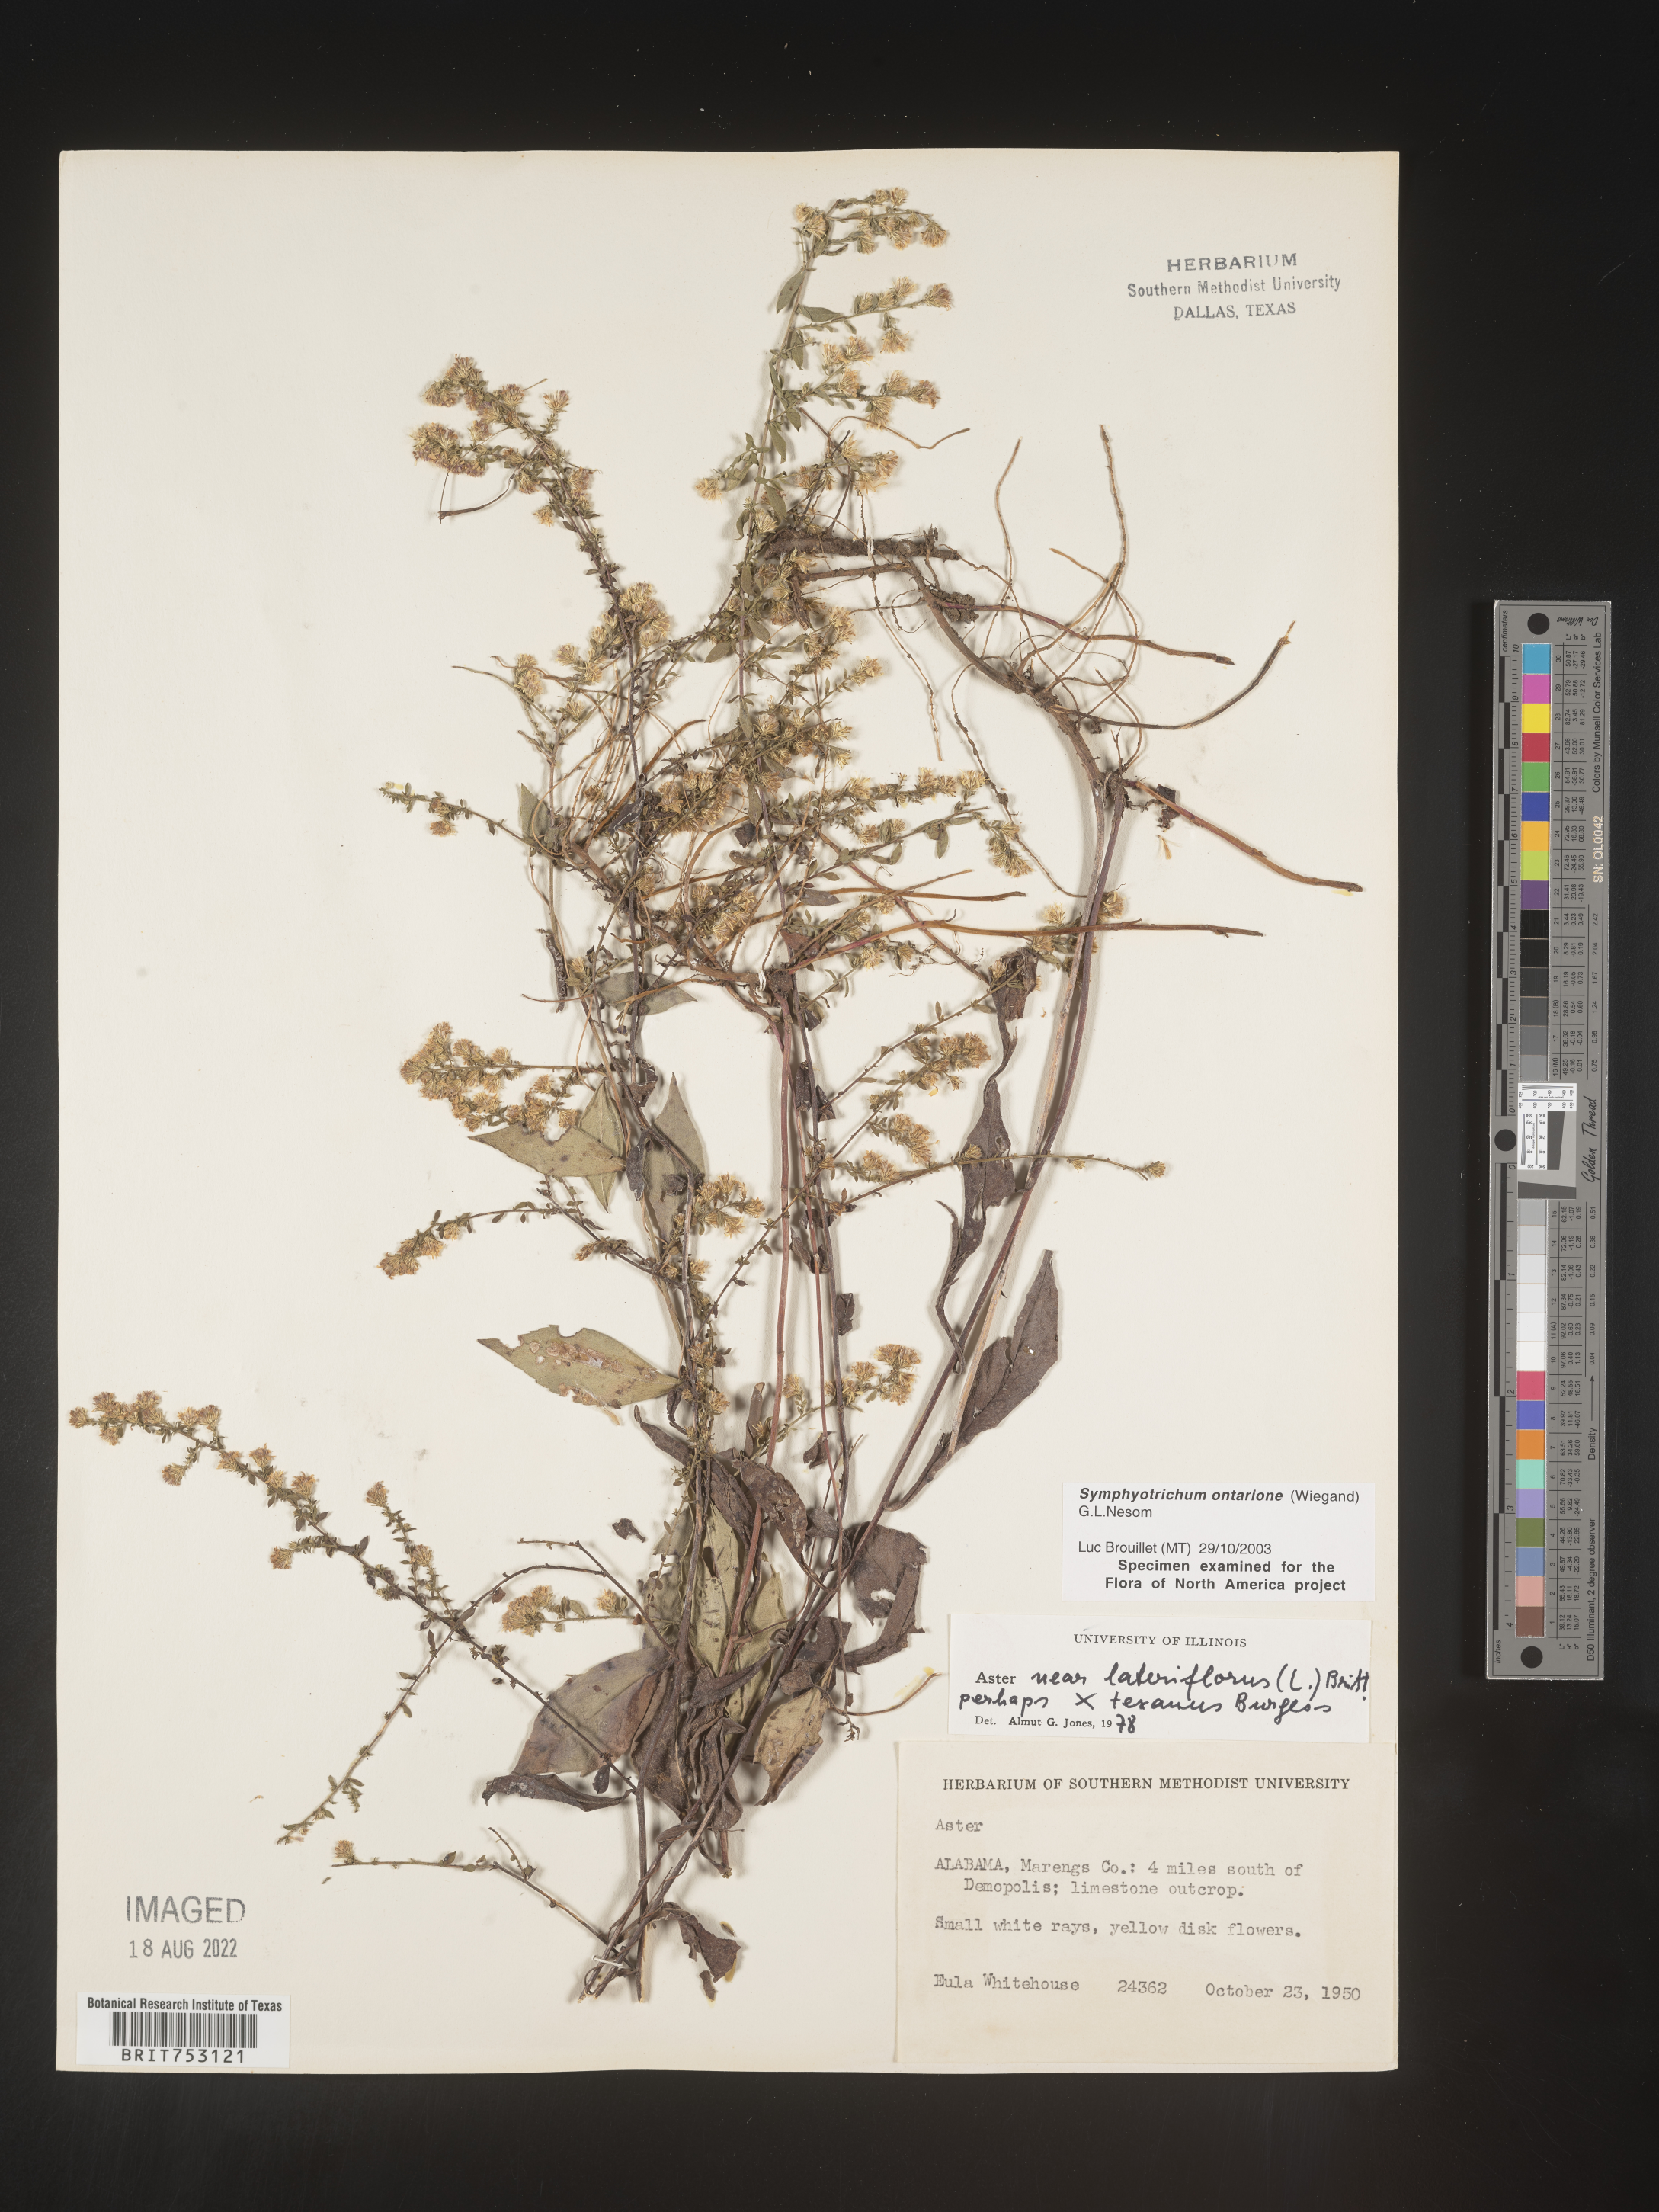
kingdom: Plantae
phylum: Tracheophyta
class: Magnoliopsida
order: Asterales
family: Asteraceae
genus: Symphyotrichum
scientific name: Symphyotrichum ontarionis
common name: Bottomland aster
